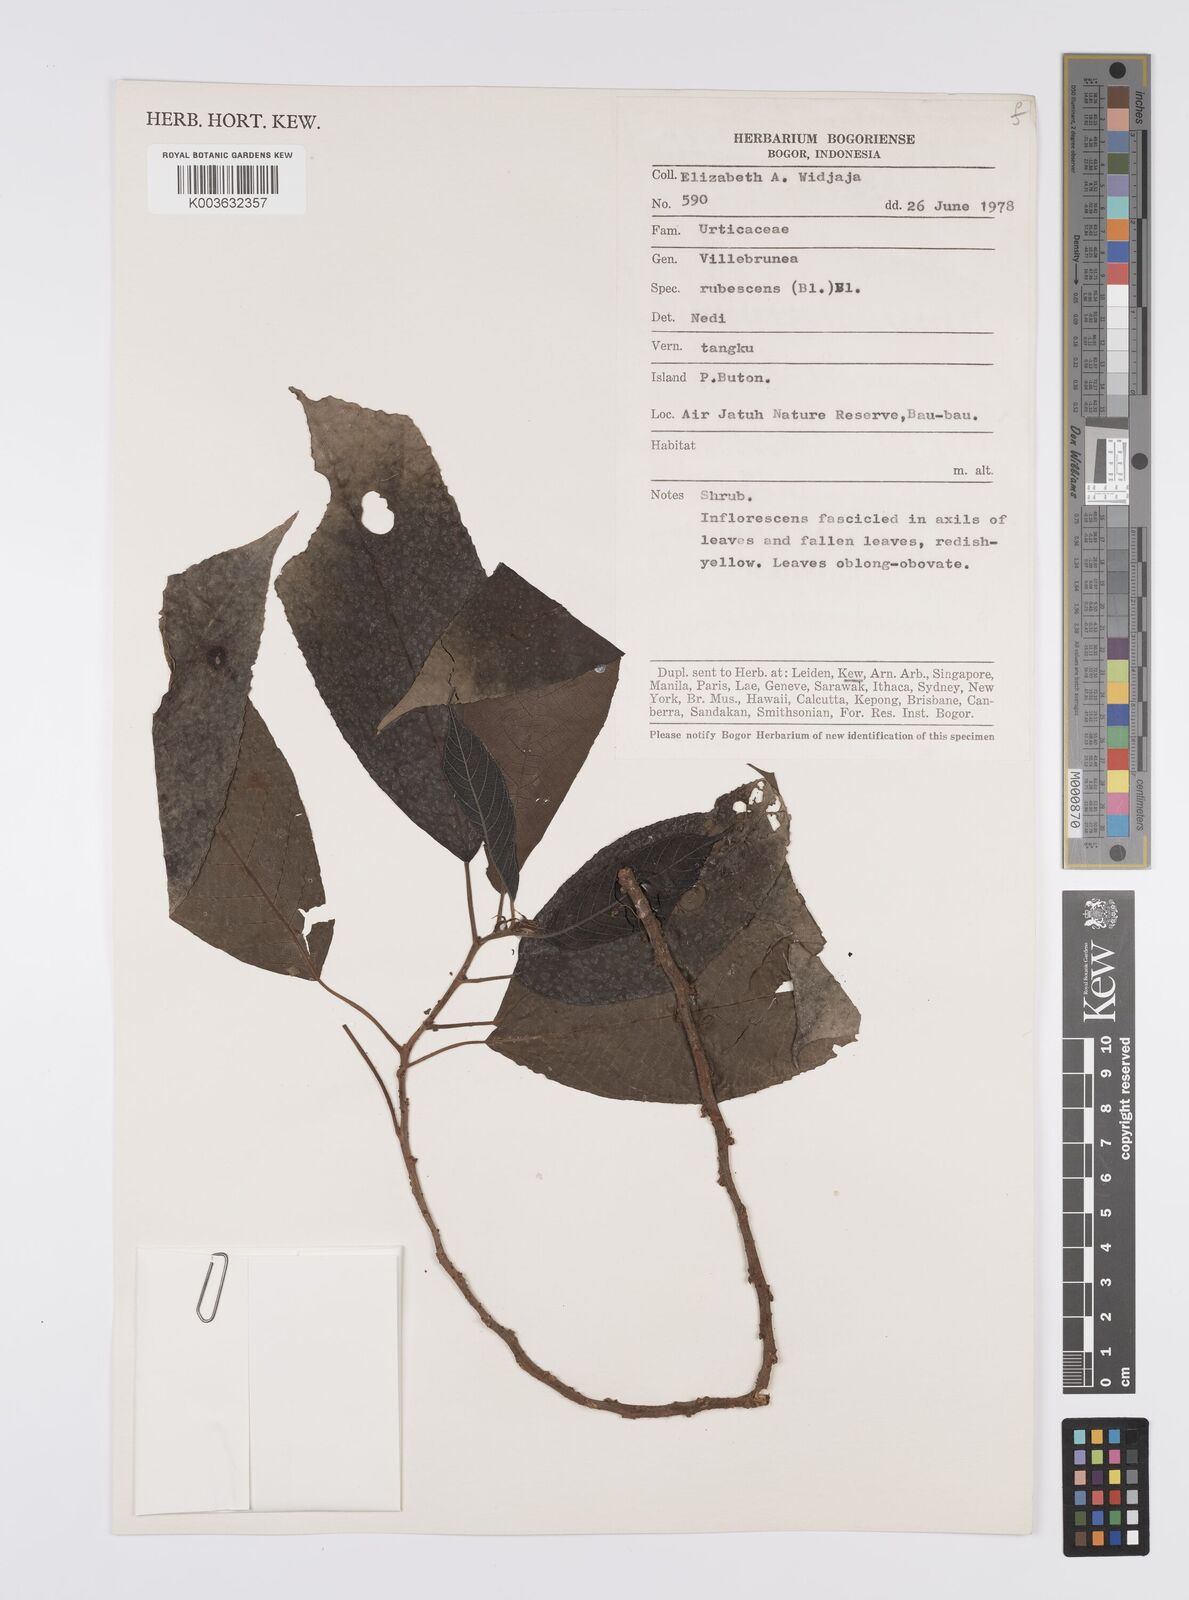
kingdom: Plantae
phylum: Tracheophyta
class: Magnoliopsida
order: Rosales
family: Urticaceae
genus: Oreocnide
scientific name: Oreocnide rubescens
